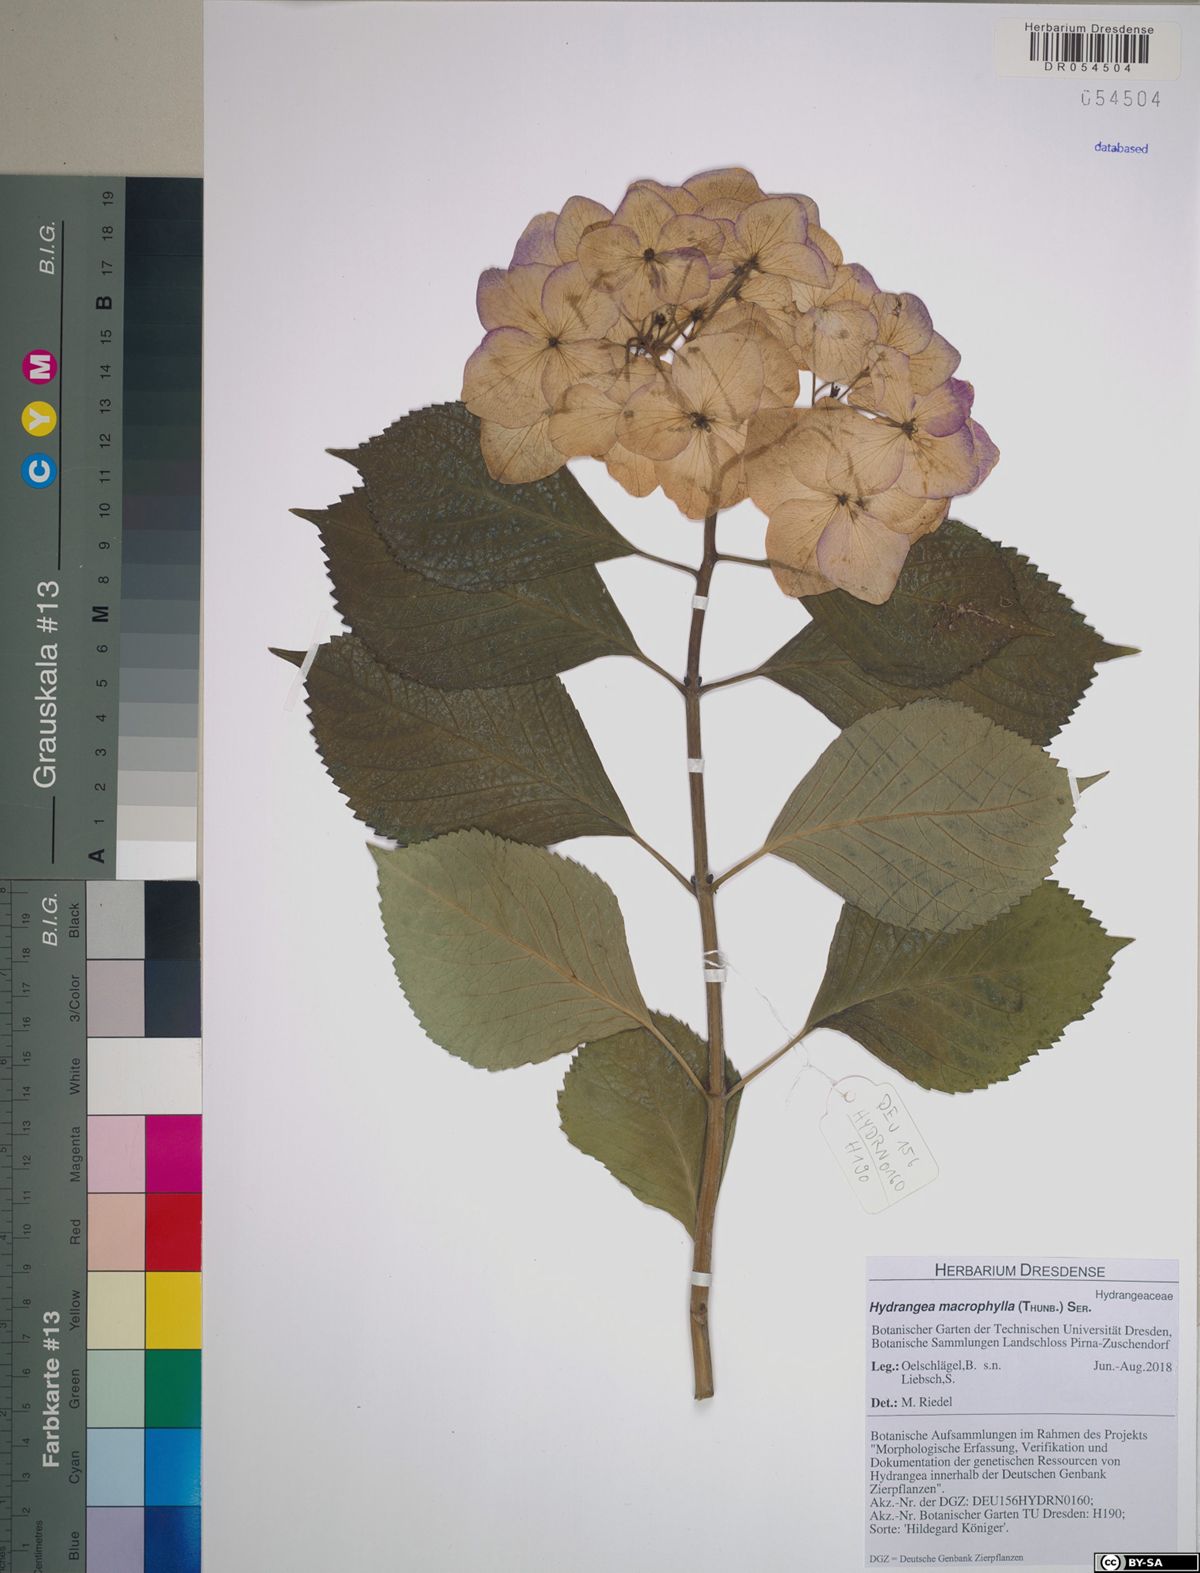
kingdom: Plantae
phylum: Tracheophyta
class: Magnoliopsida
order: Cornales
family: Hydrangeaceae
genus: Hydrangea
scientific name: Hydrangea macrophylla
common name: Hydrangea
